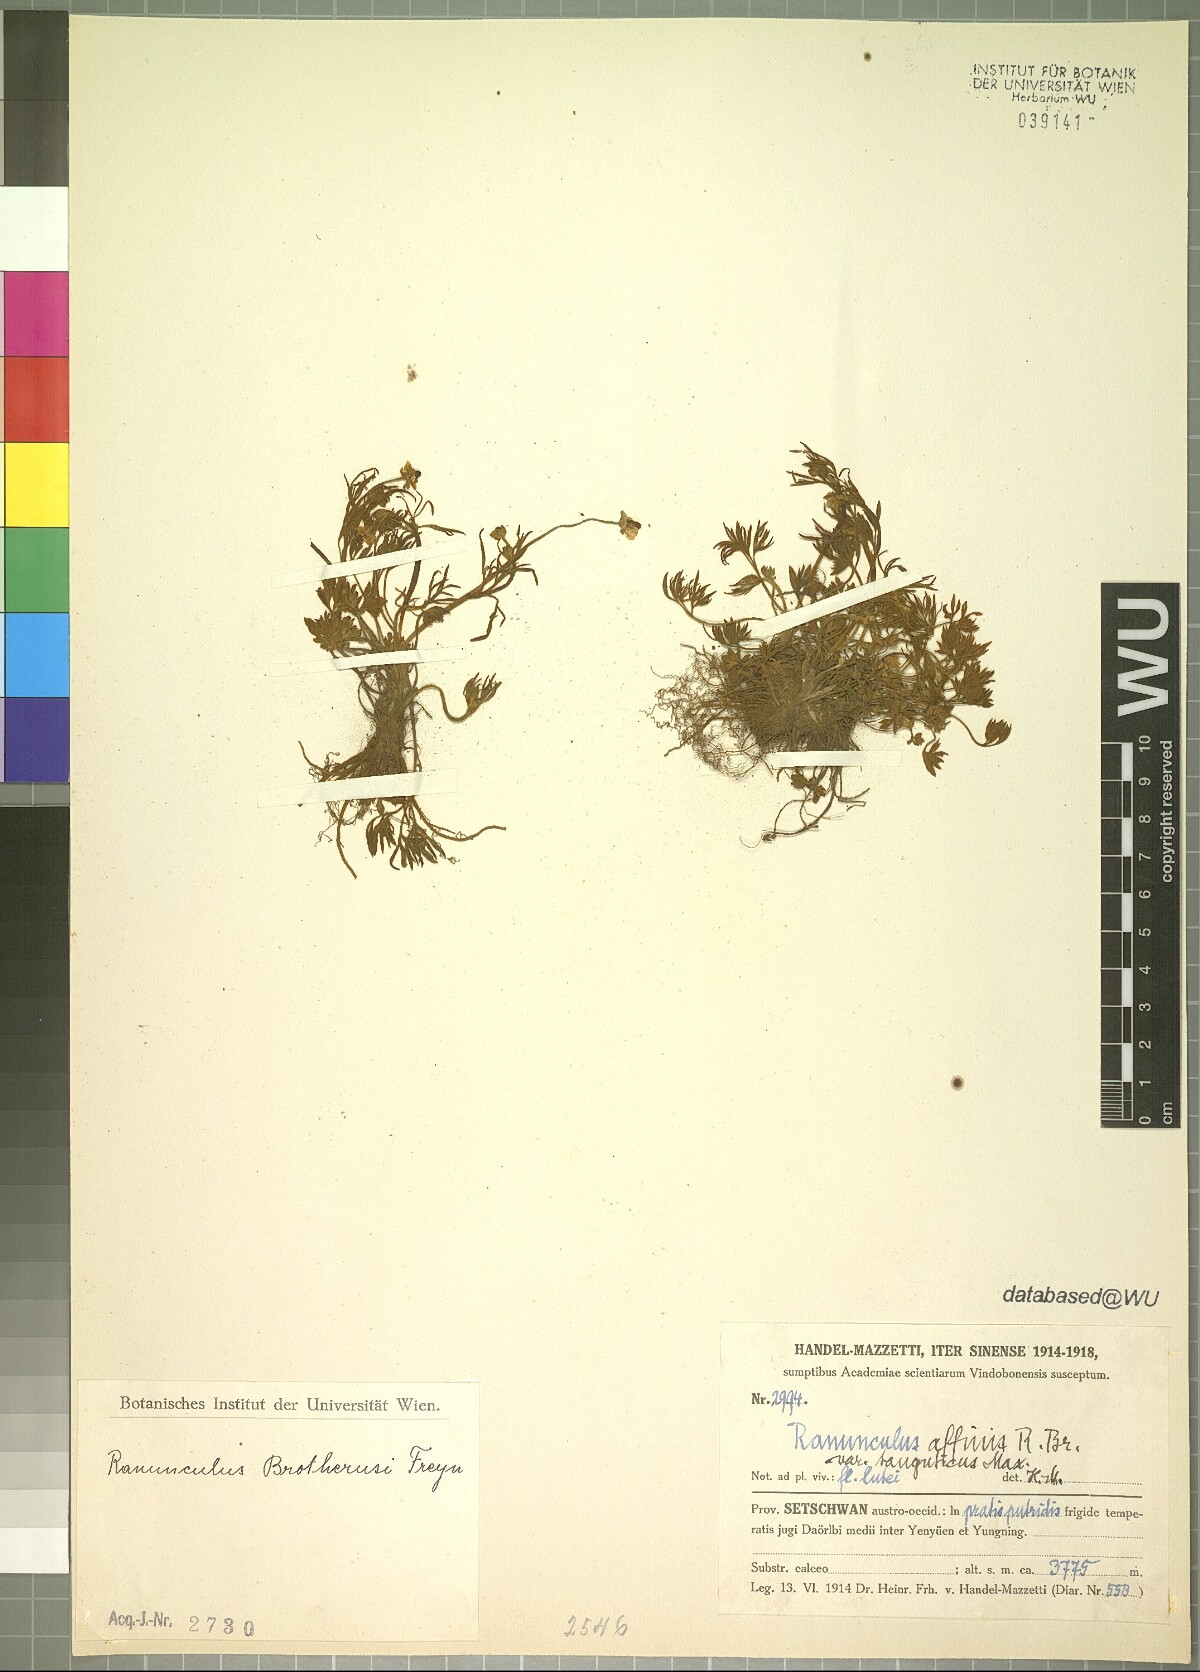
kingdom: Plantae
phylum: Tracheophyta
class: Magnoliopsida
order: Ranunculales
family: Ranunculaceae
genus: Ranunculus
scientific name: Ranunculus brotherusii
